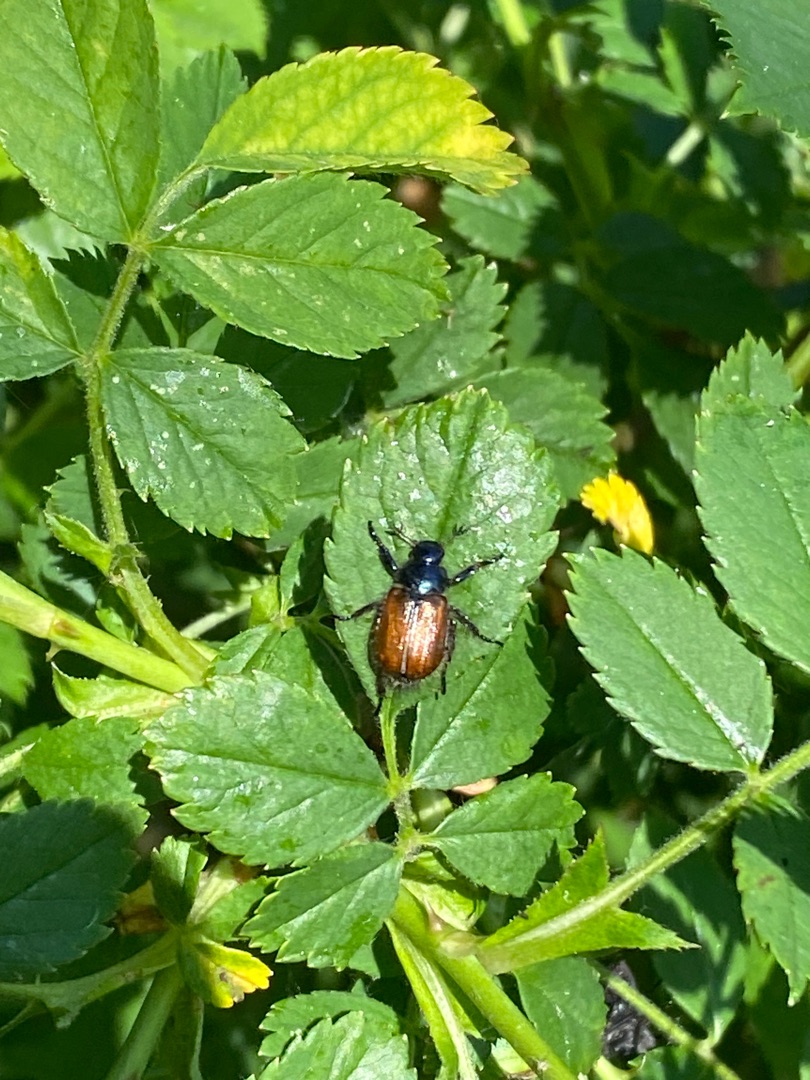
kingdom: Animalia
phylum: Arthropoda
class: Insecta
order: Coleoptera
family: Scarabaeidae
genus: Phyllopertha
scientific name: Phyllopertha horticola
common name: Gåsebille
